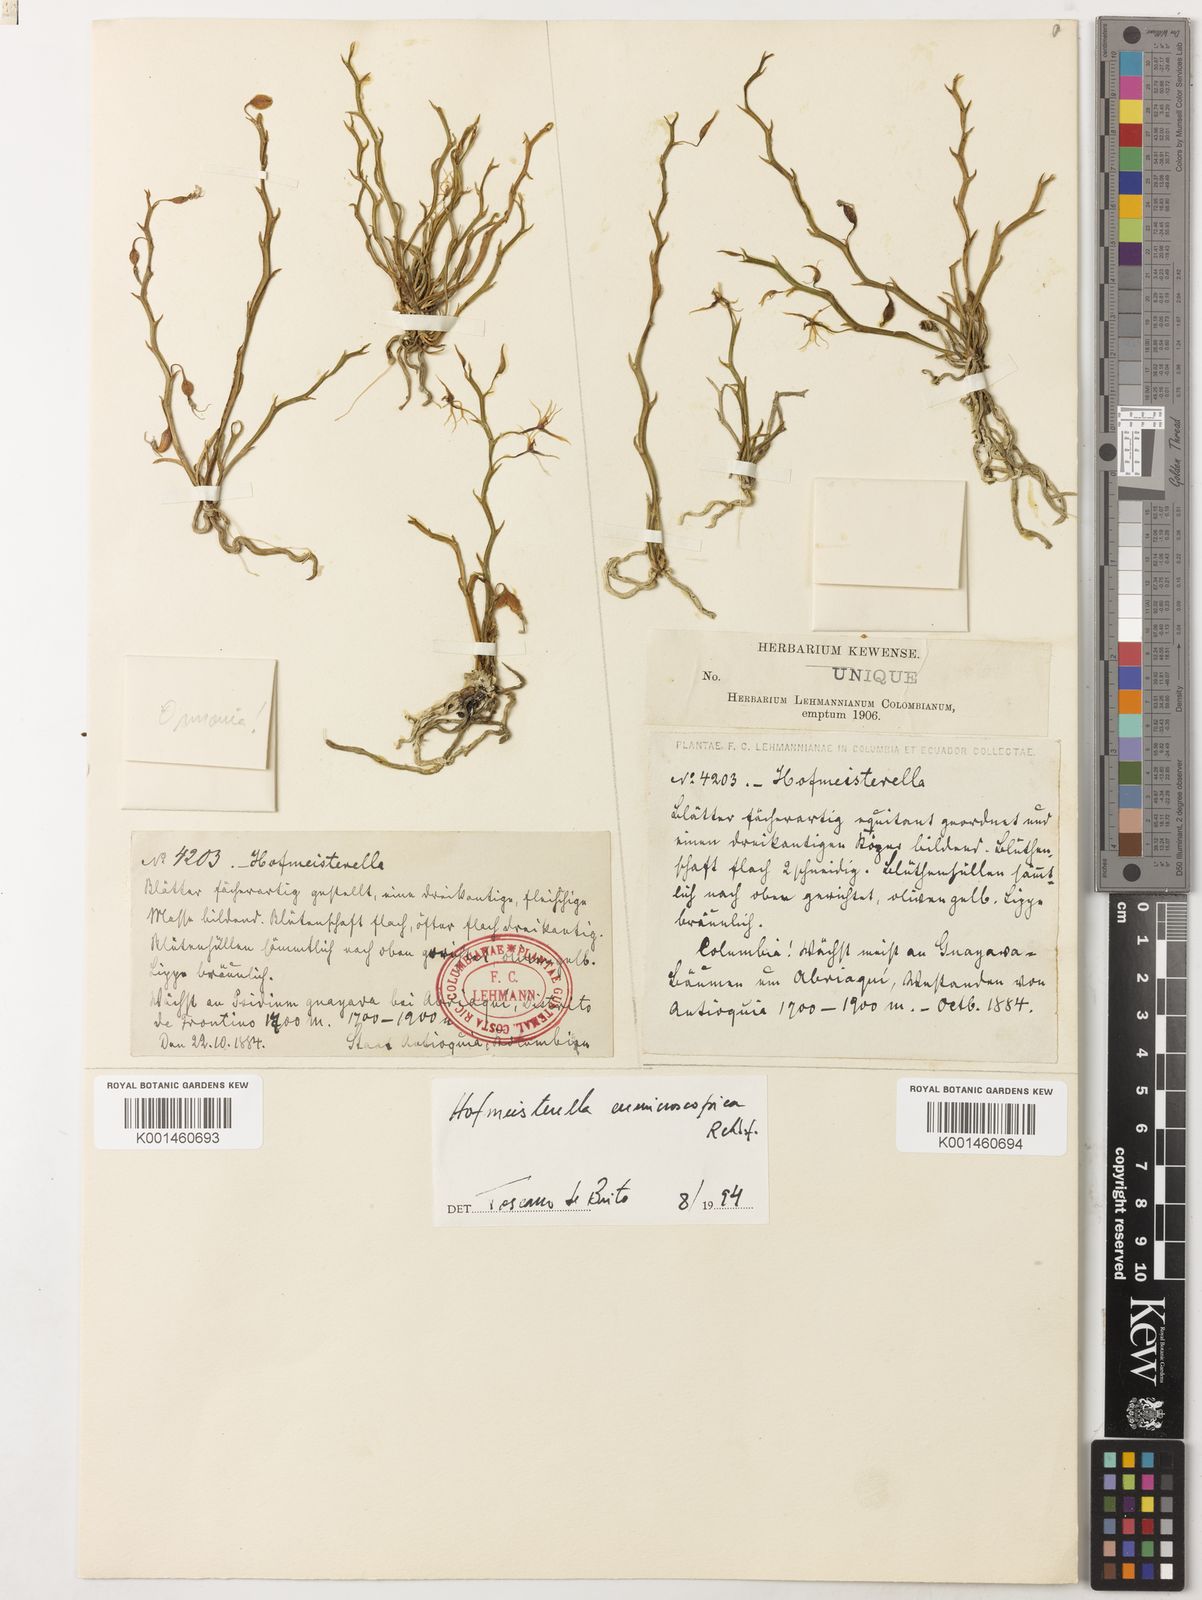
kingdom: Plantae
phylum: Tracheophyta
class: Liliopsida
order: Asparagales
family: Orchidaceae
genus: Hofmeisterella
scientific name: Hofmeisterella eumicroscopica
